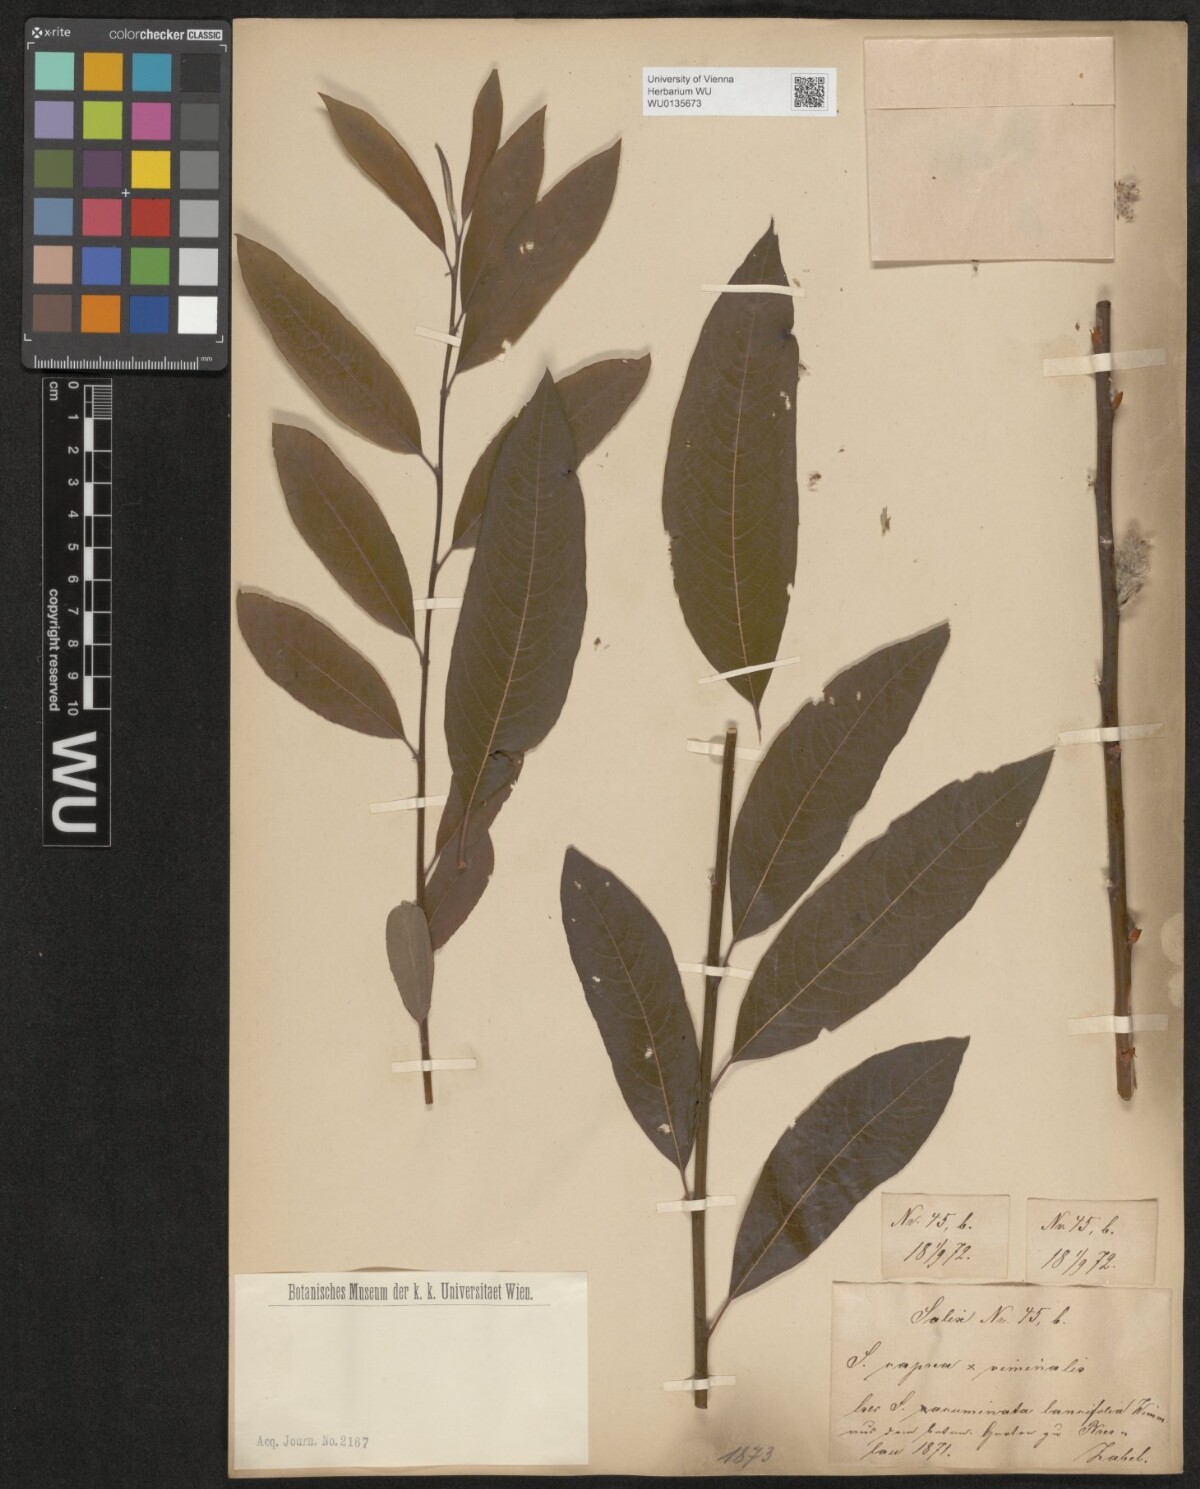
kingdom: Plantae
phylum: Tracheophyta
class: Magnoliopsida
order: Malpighiales
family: Salicaceae
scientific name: Salicaceae
